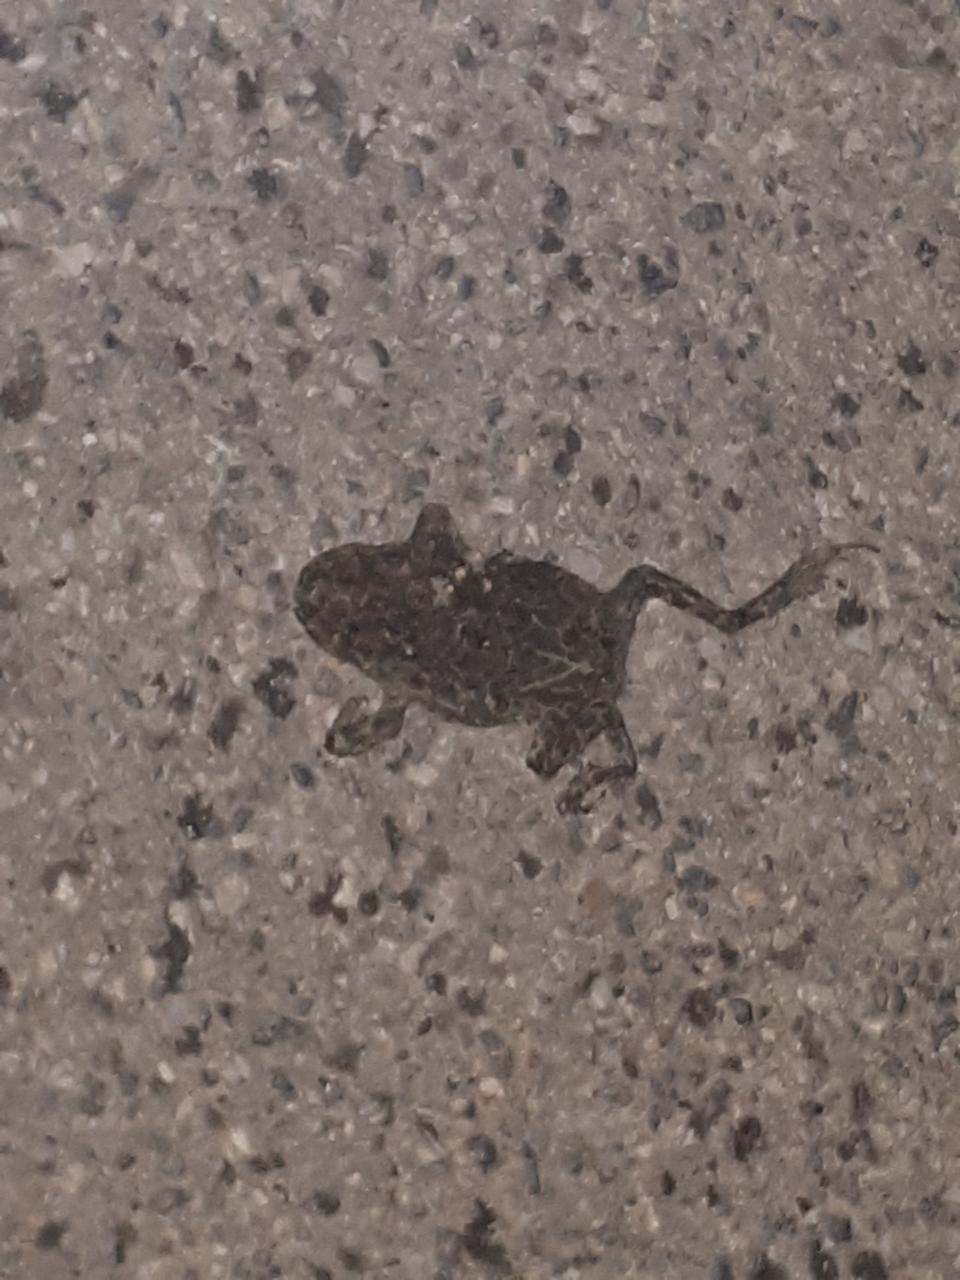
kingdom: Animalia
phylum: Chordata
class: Amphibia
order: Anura
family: Bufonidae
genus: Bufotes
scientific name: Bufotes viridis
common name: European green toad
